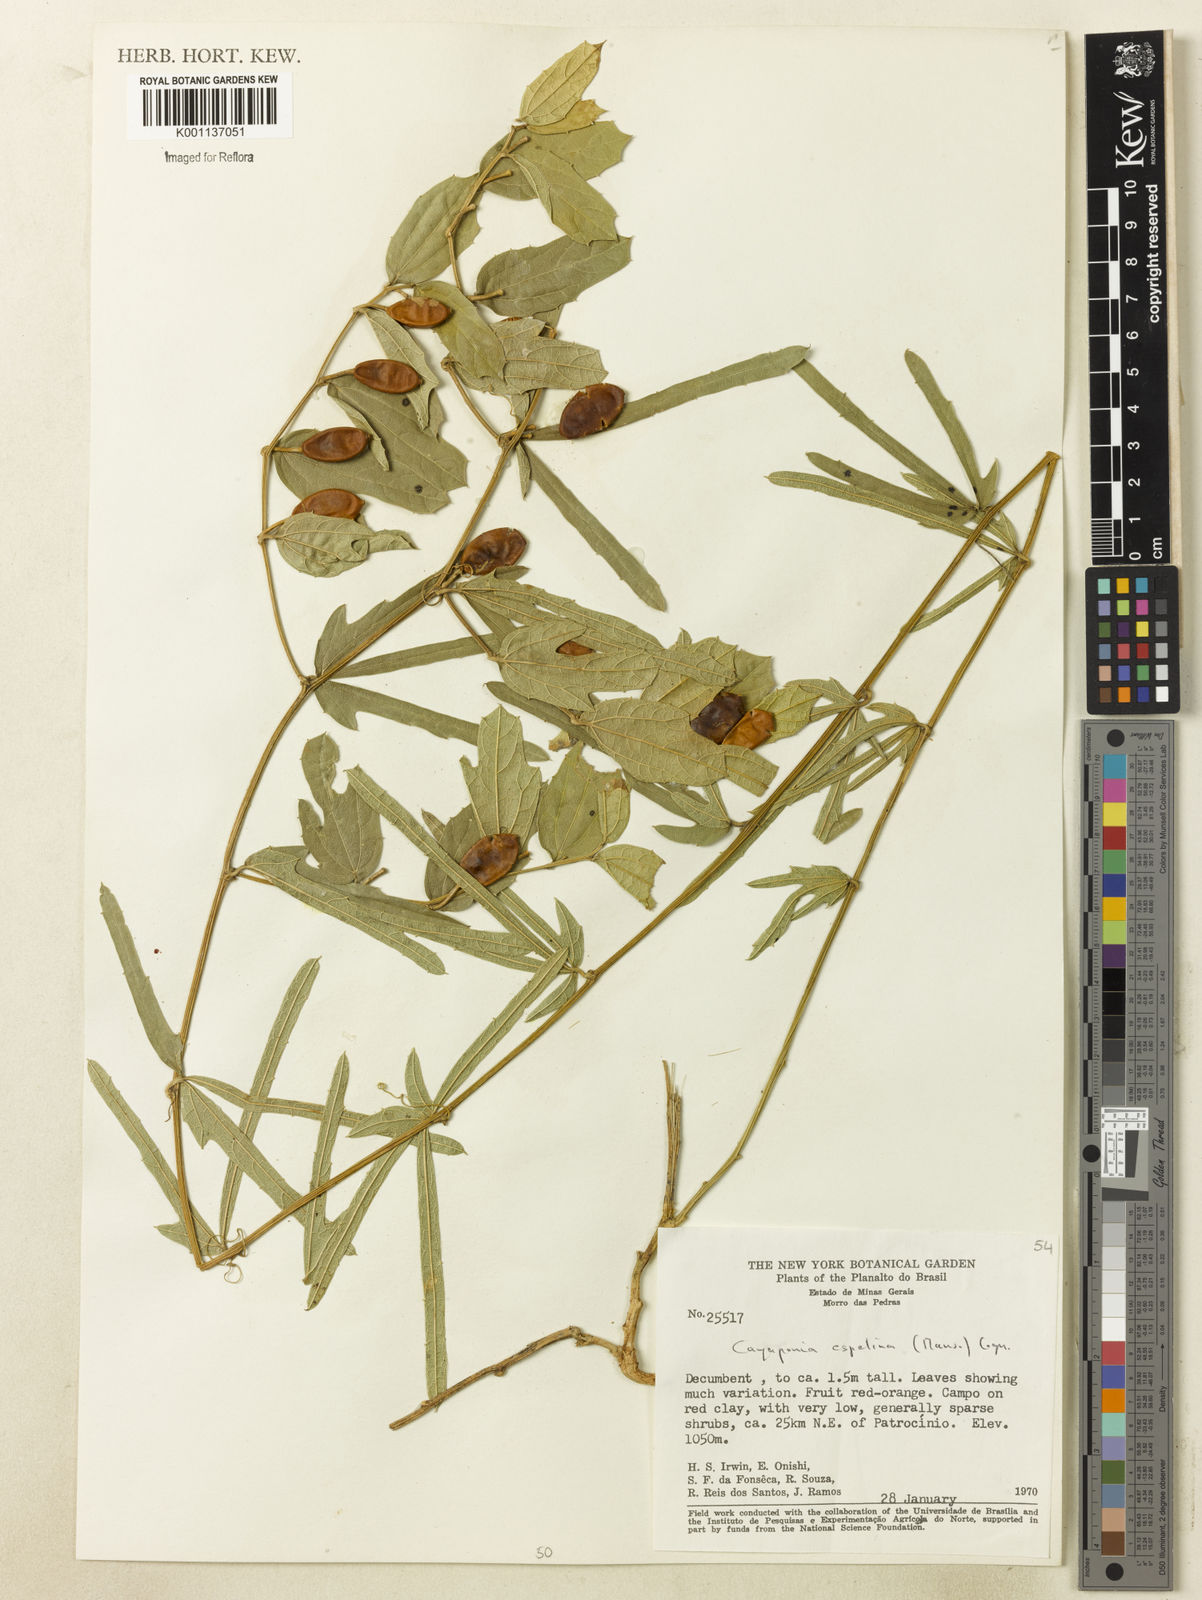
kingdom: Plantae
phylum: Tracheophyta
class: Magnoliopsida
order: Cucurbitales
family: Cucurbitaceae
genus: Cayaponia
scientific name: Cayaponia espelina
